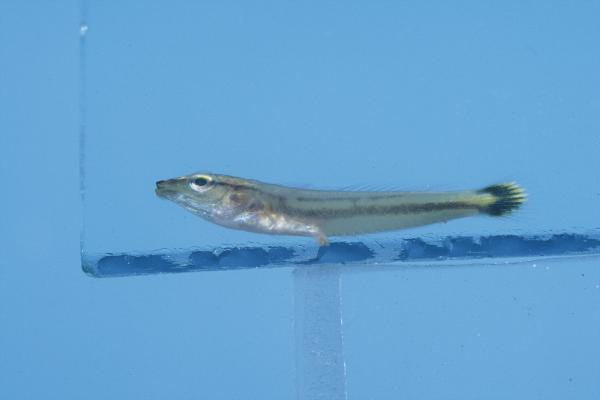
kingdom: Animalia
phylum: Chordata
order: Perciformes
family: Labridae
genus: Hologymnosus
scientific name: Hologymnosus annulatus
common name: Ring wrasse
